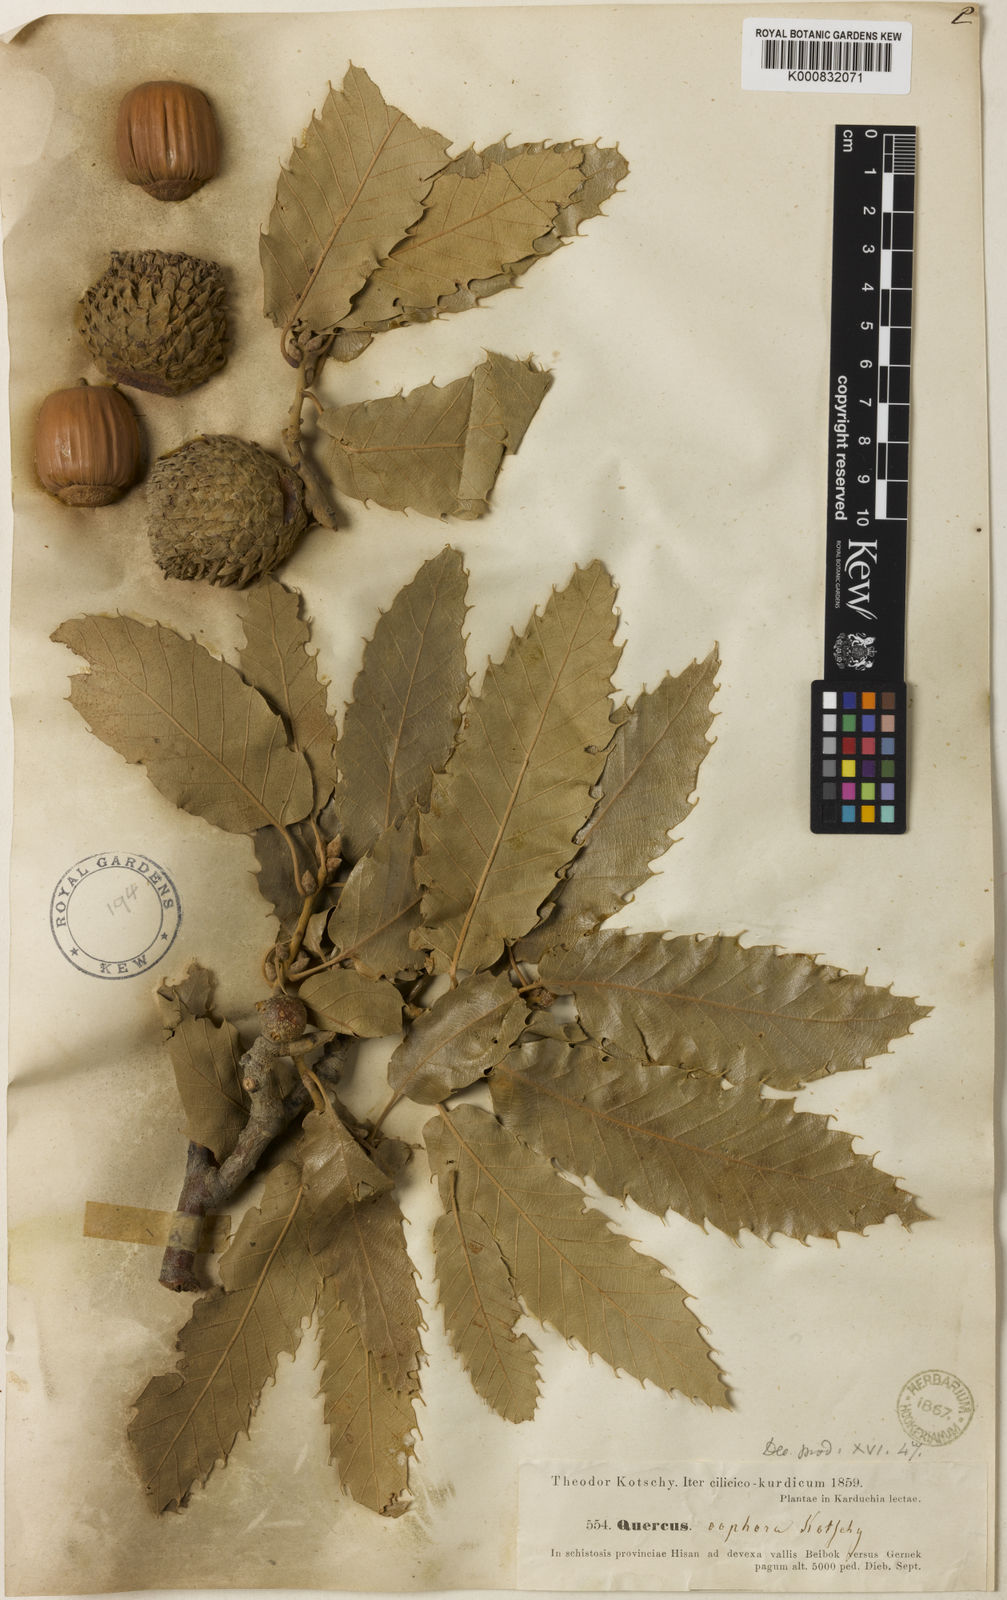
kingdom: Plantae
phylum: Tracheophyta
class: Magnoliopsida
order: Fagales
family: Fagaceae
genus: Quercus
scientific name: Quercus libani
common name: Lebanon oak
